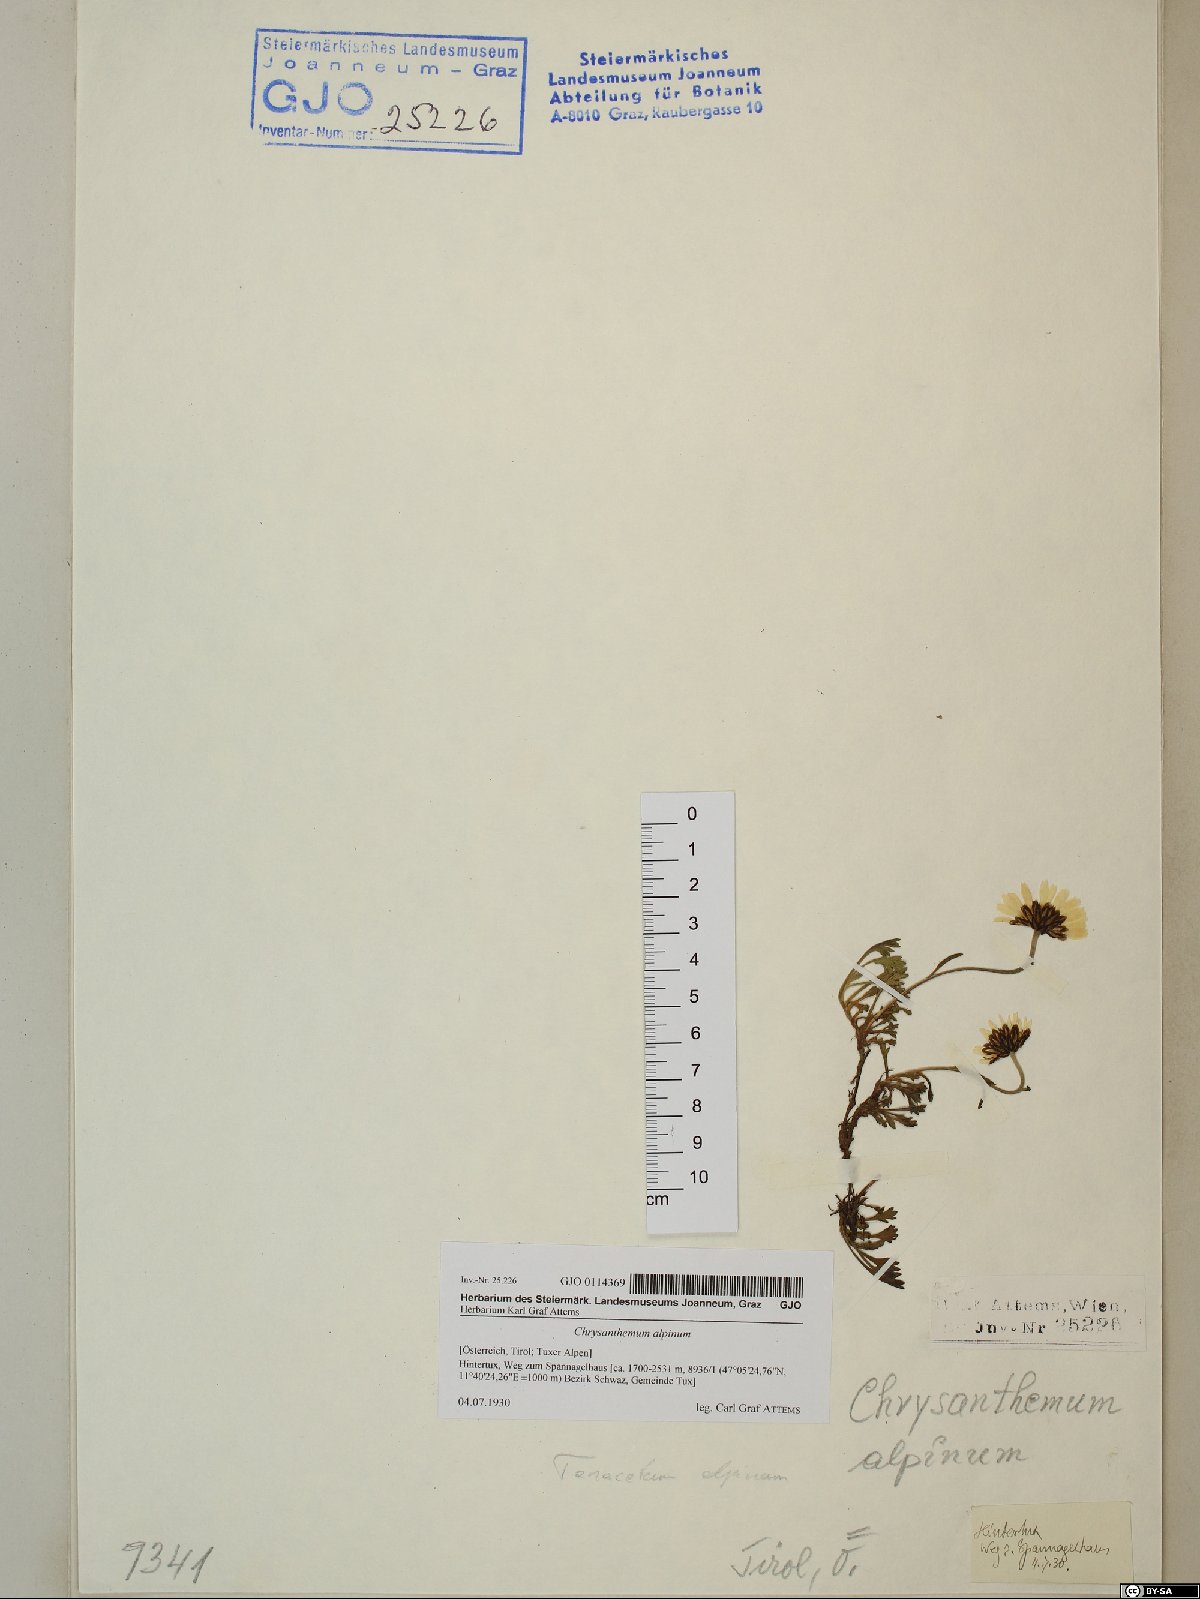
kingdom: Plantae
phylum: Tracheophyta
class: Magnoliopsida
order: Asterales
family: Asteraceae
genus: Leucanthemopsis
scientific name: Leucanthemopsis alpina
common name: Alpine moon daisy
